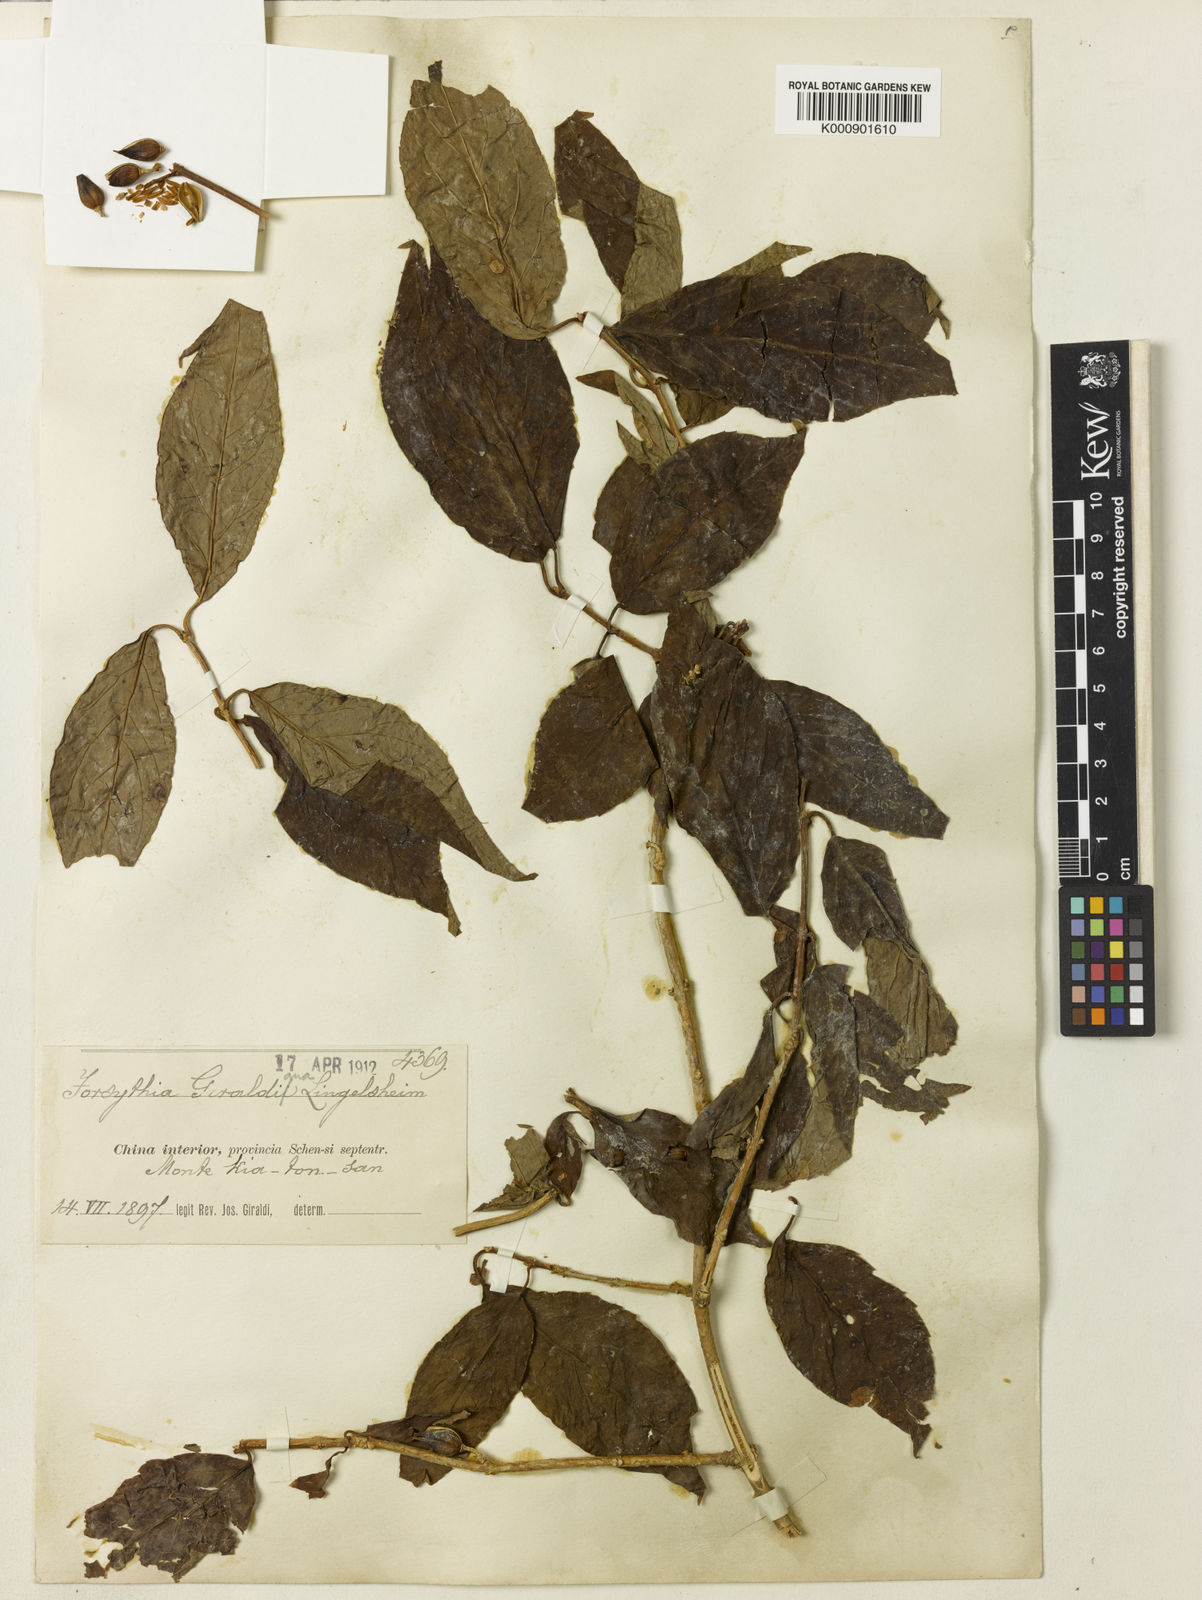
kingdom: Plantae
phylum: Tracheophyta
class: Magnoliopsida
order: Lamiales
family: Oleaceae
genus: Forsythia
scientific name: Forsythia giraldiana
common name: Early forsythia
